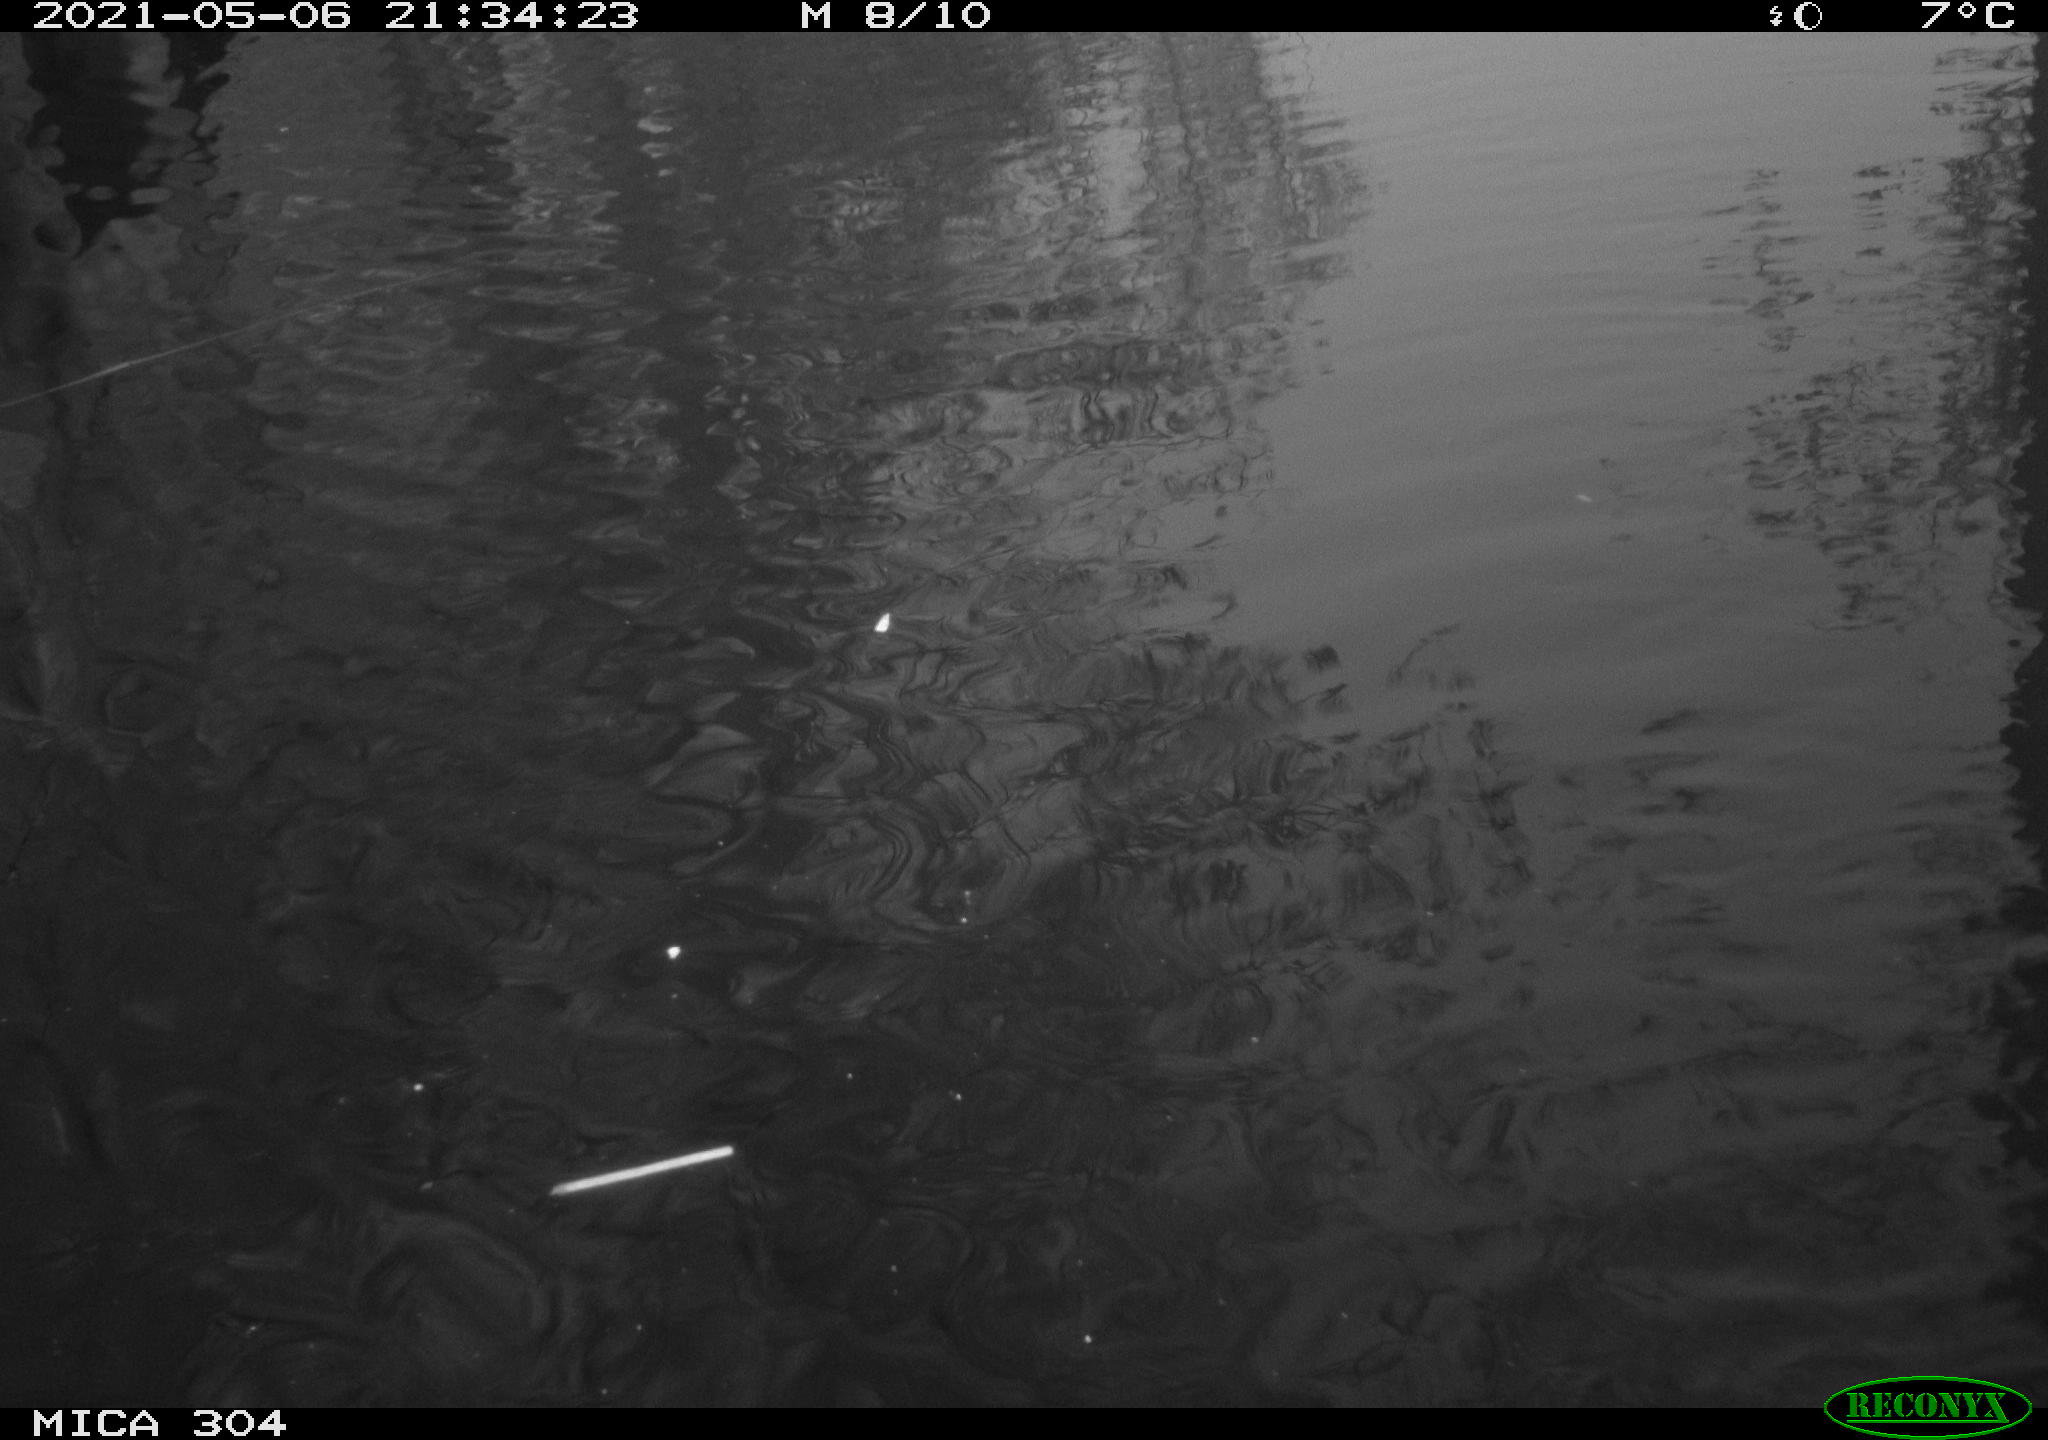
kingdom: Animalia
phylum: Chordata
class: Mammalia
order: Rodentia
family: Cricetidae
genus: Ondatra
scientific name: Ondatra zibethicus
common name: Muskrat
